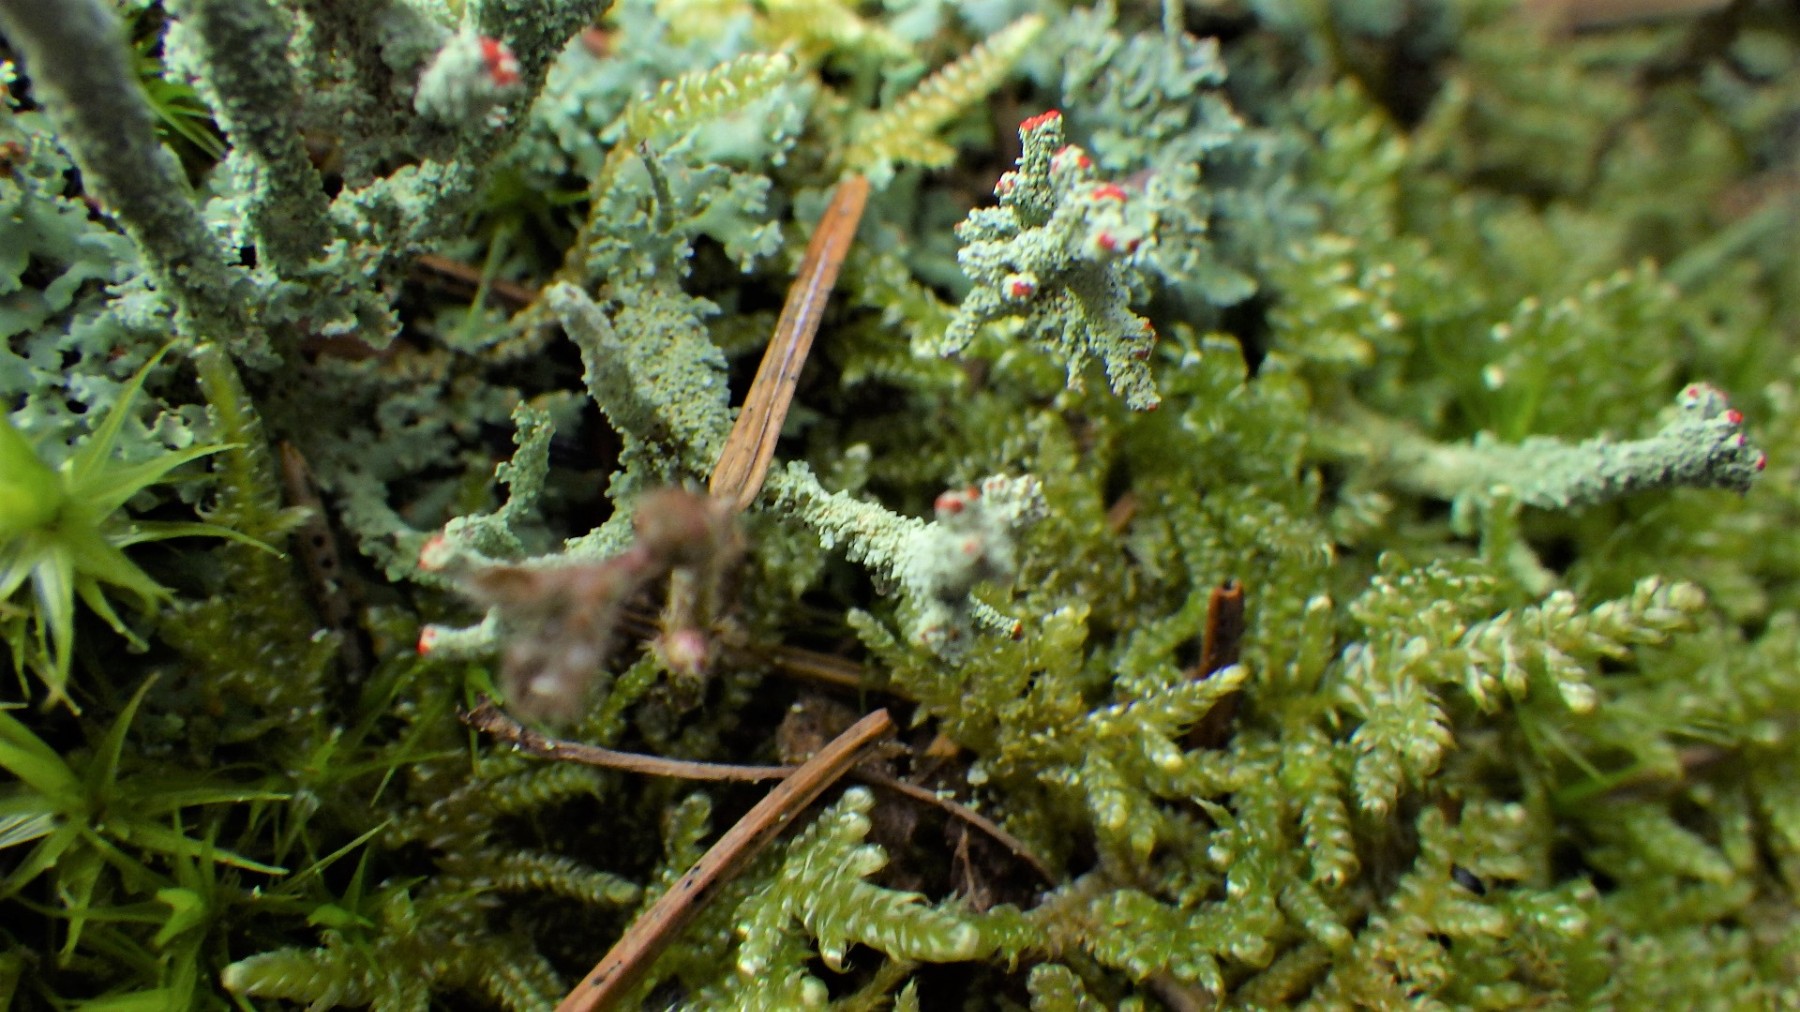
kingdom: Fungi
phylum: Ascomycota
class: Lecanoromycetes
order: Lecanorales
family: Cladoniaceae
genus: Cladonia
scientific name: Cladonia polydactyla
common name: vifte-bægerlav
